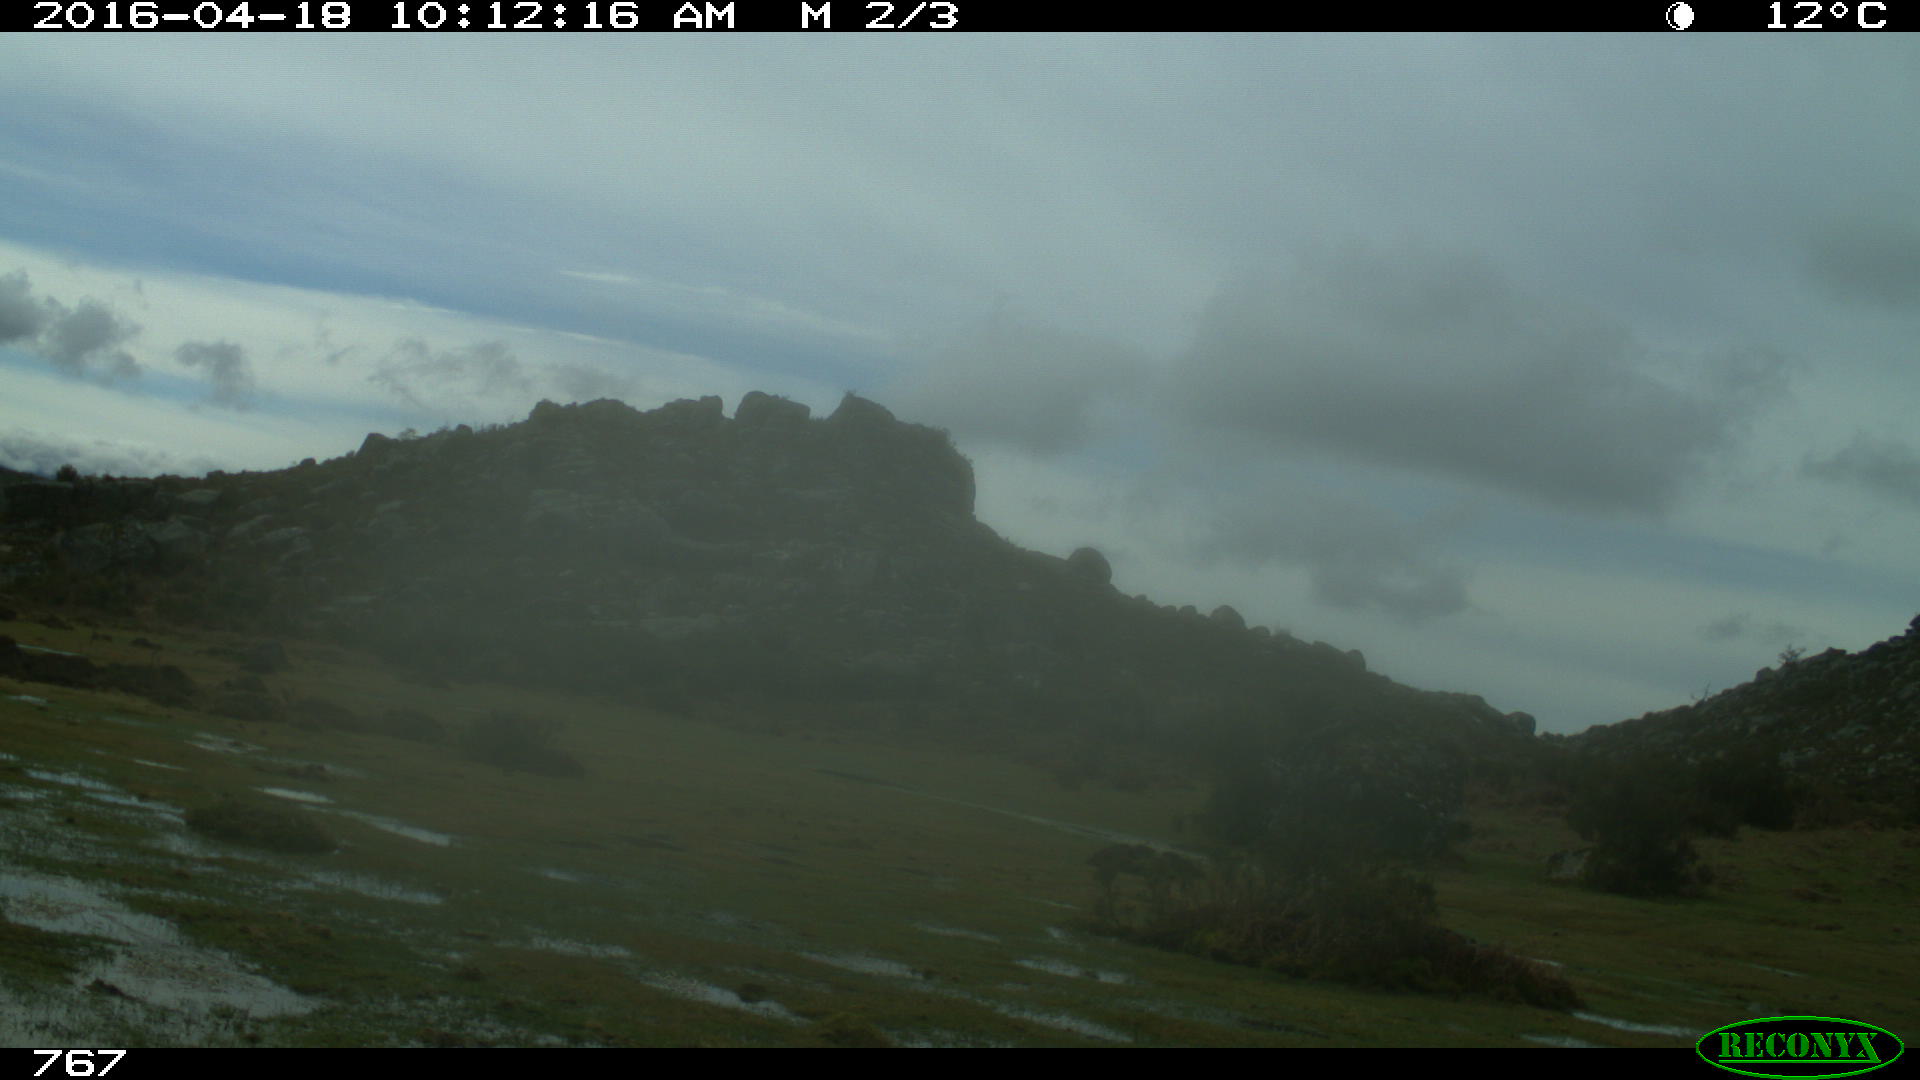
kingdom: Animalia
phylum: Chordata
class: Mammalia
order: Artiodactyla
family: Bovidae
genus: Bos
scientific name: Bos taurus
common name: Domesticated cattle
